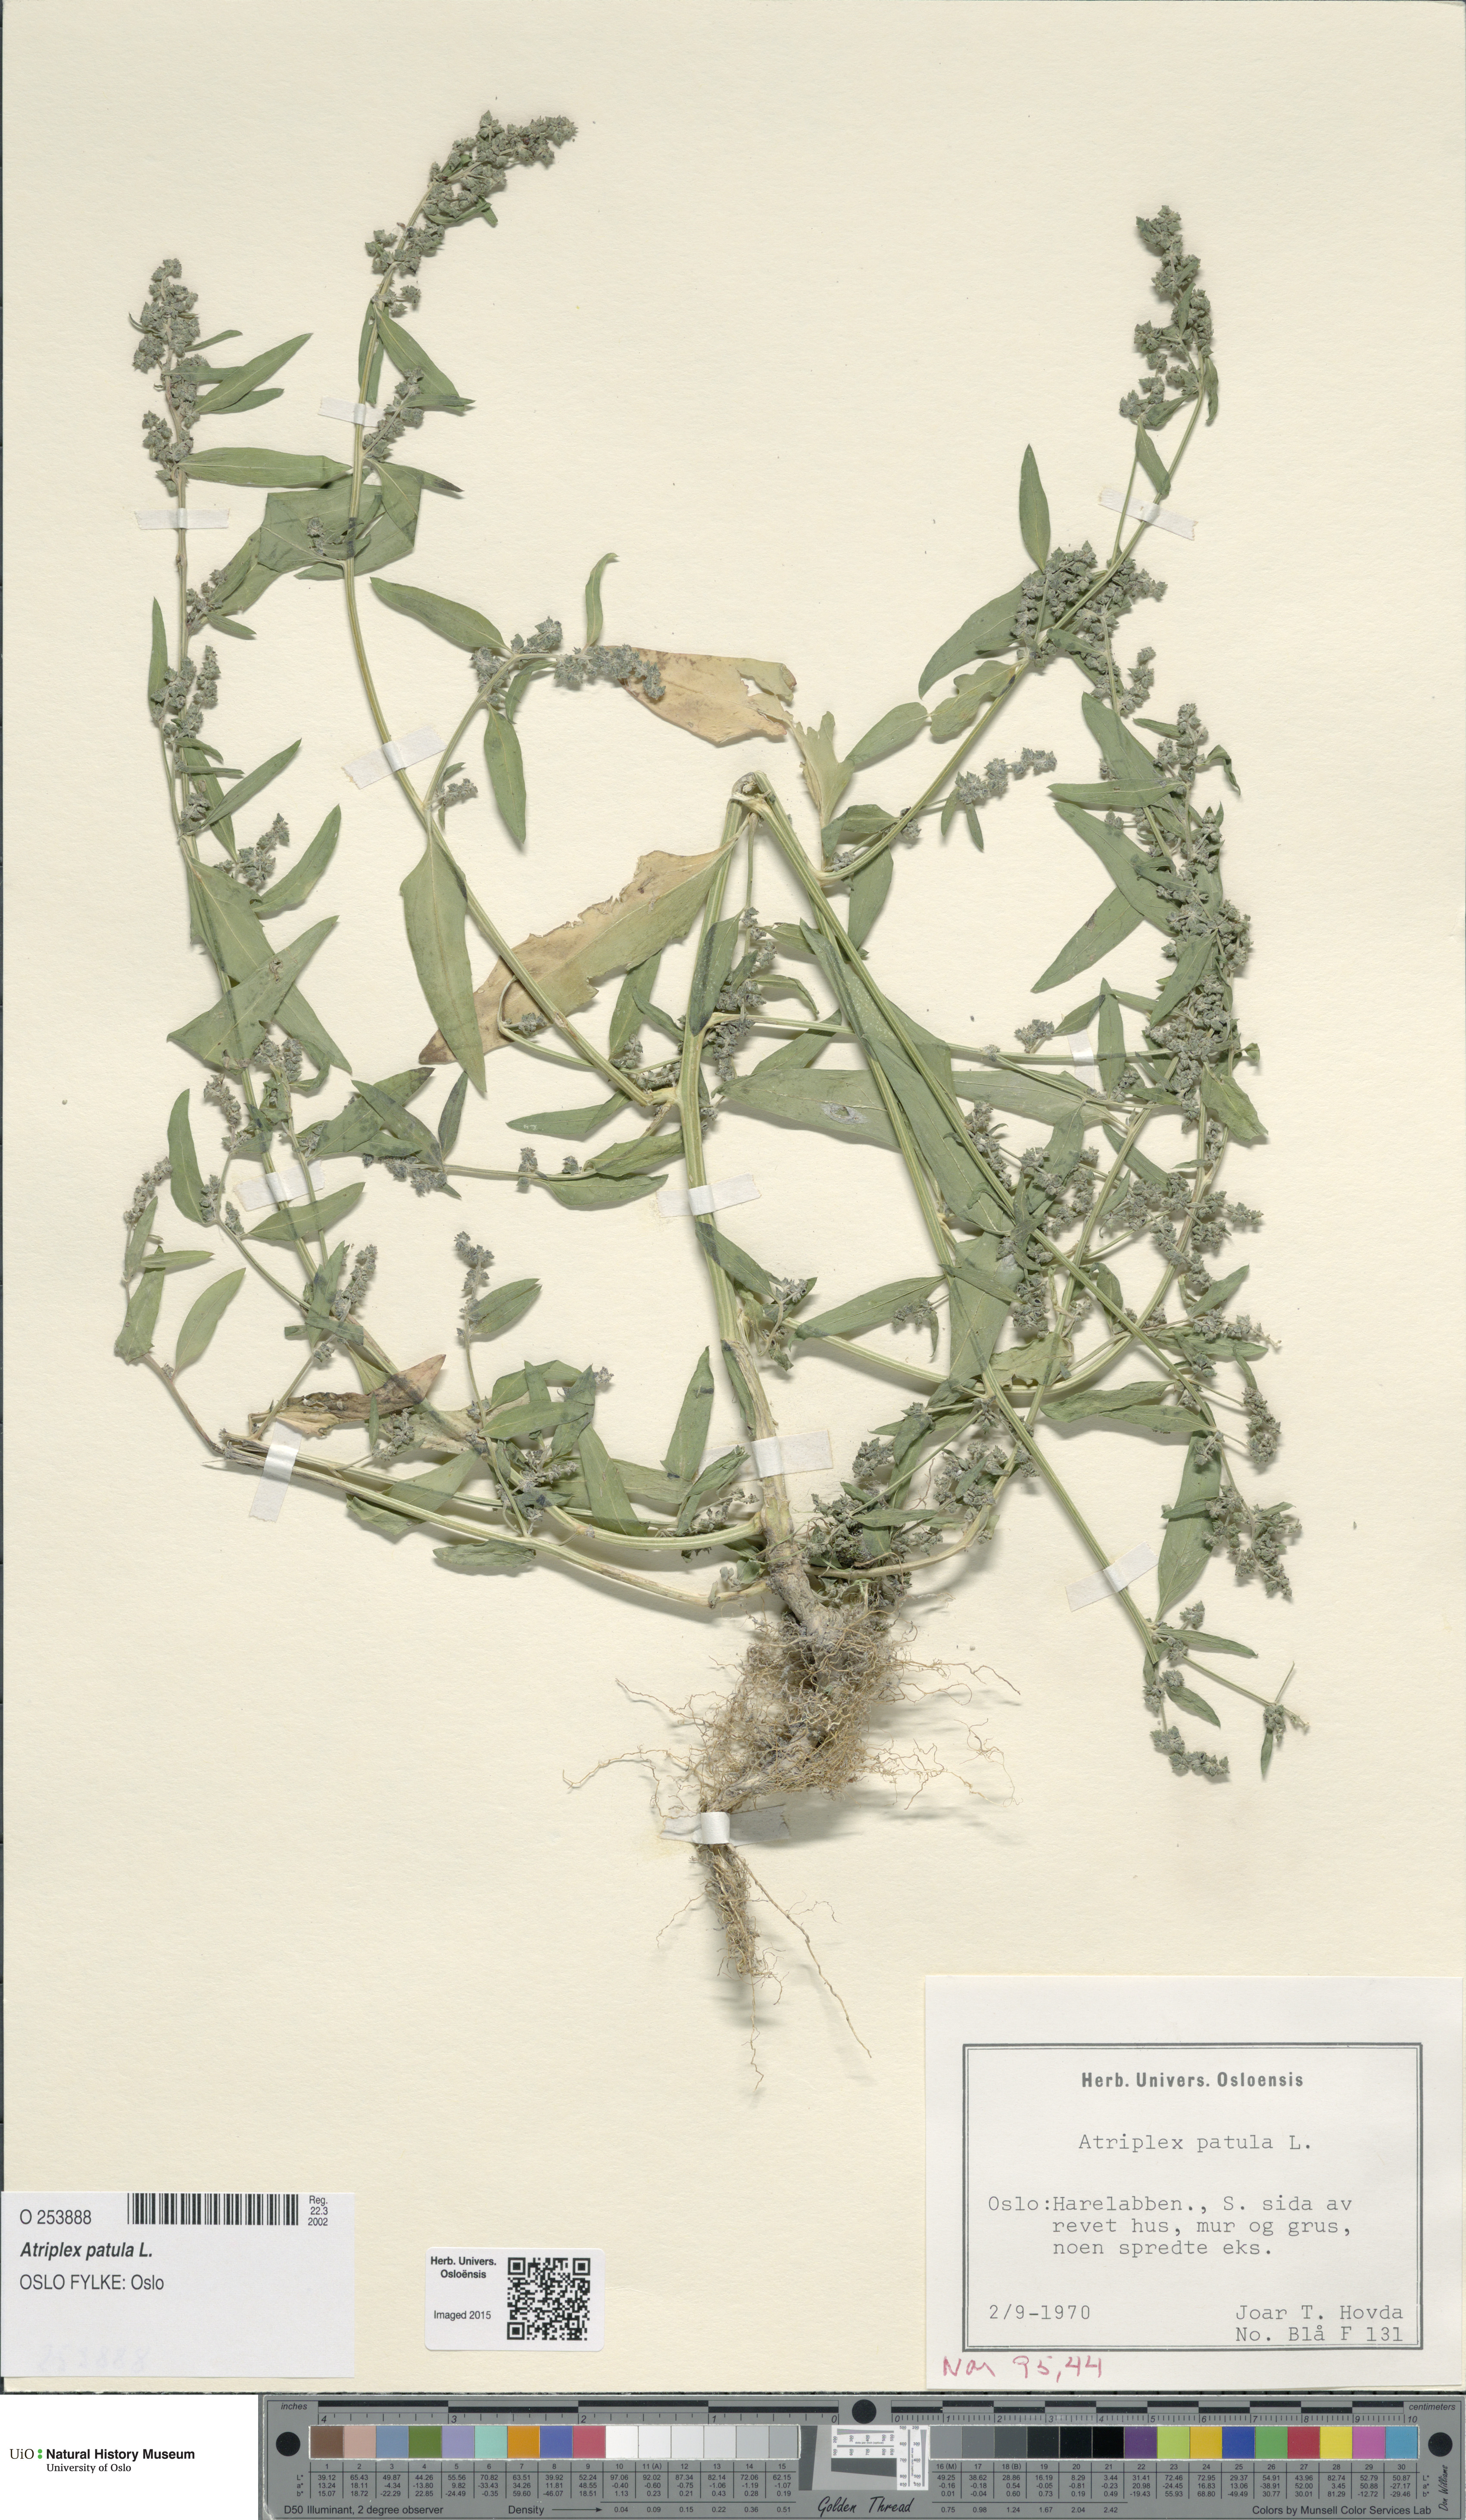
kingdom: Plantae
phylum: Tracheophyta
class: Magnoliopsida
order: Caryophyllales
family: Amaranthaceae
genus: Atriplex
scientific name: Atriplex patula
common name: Common orache
